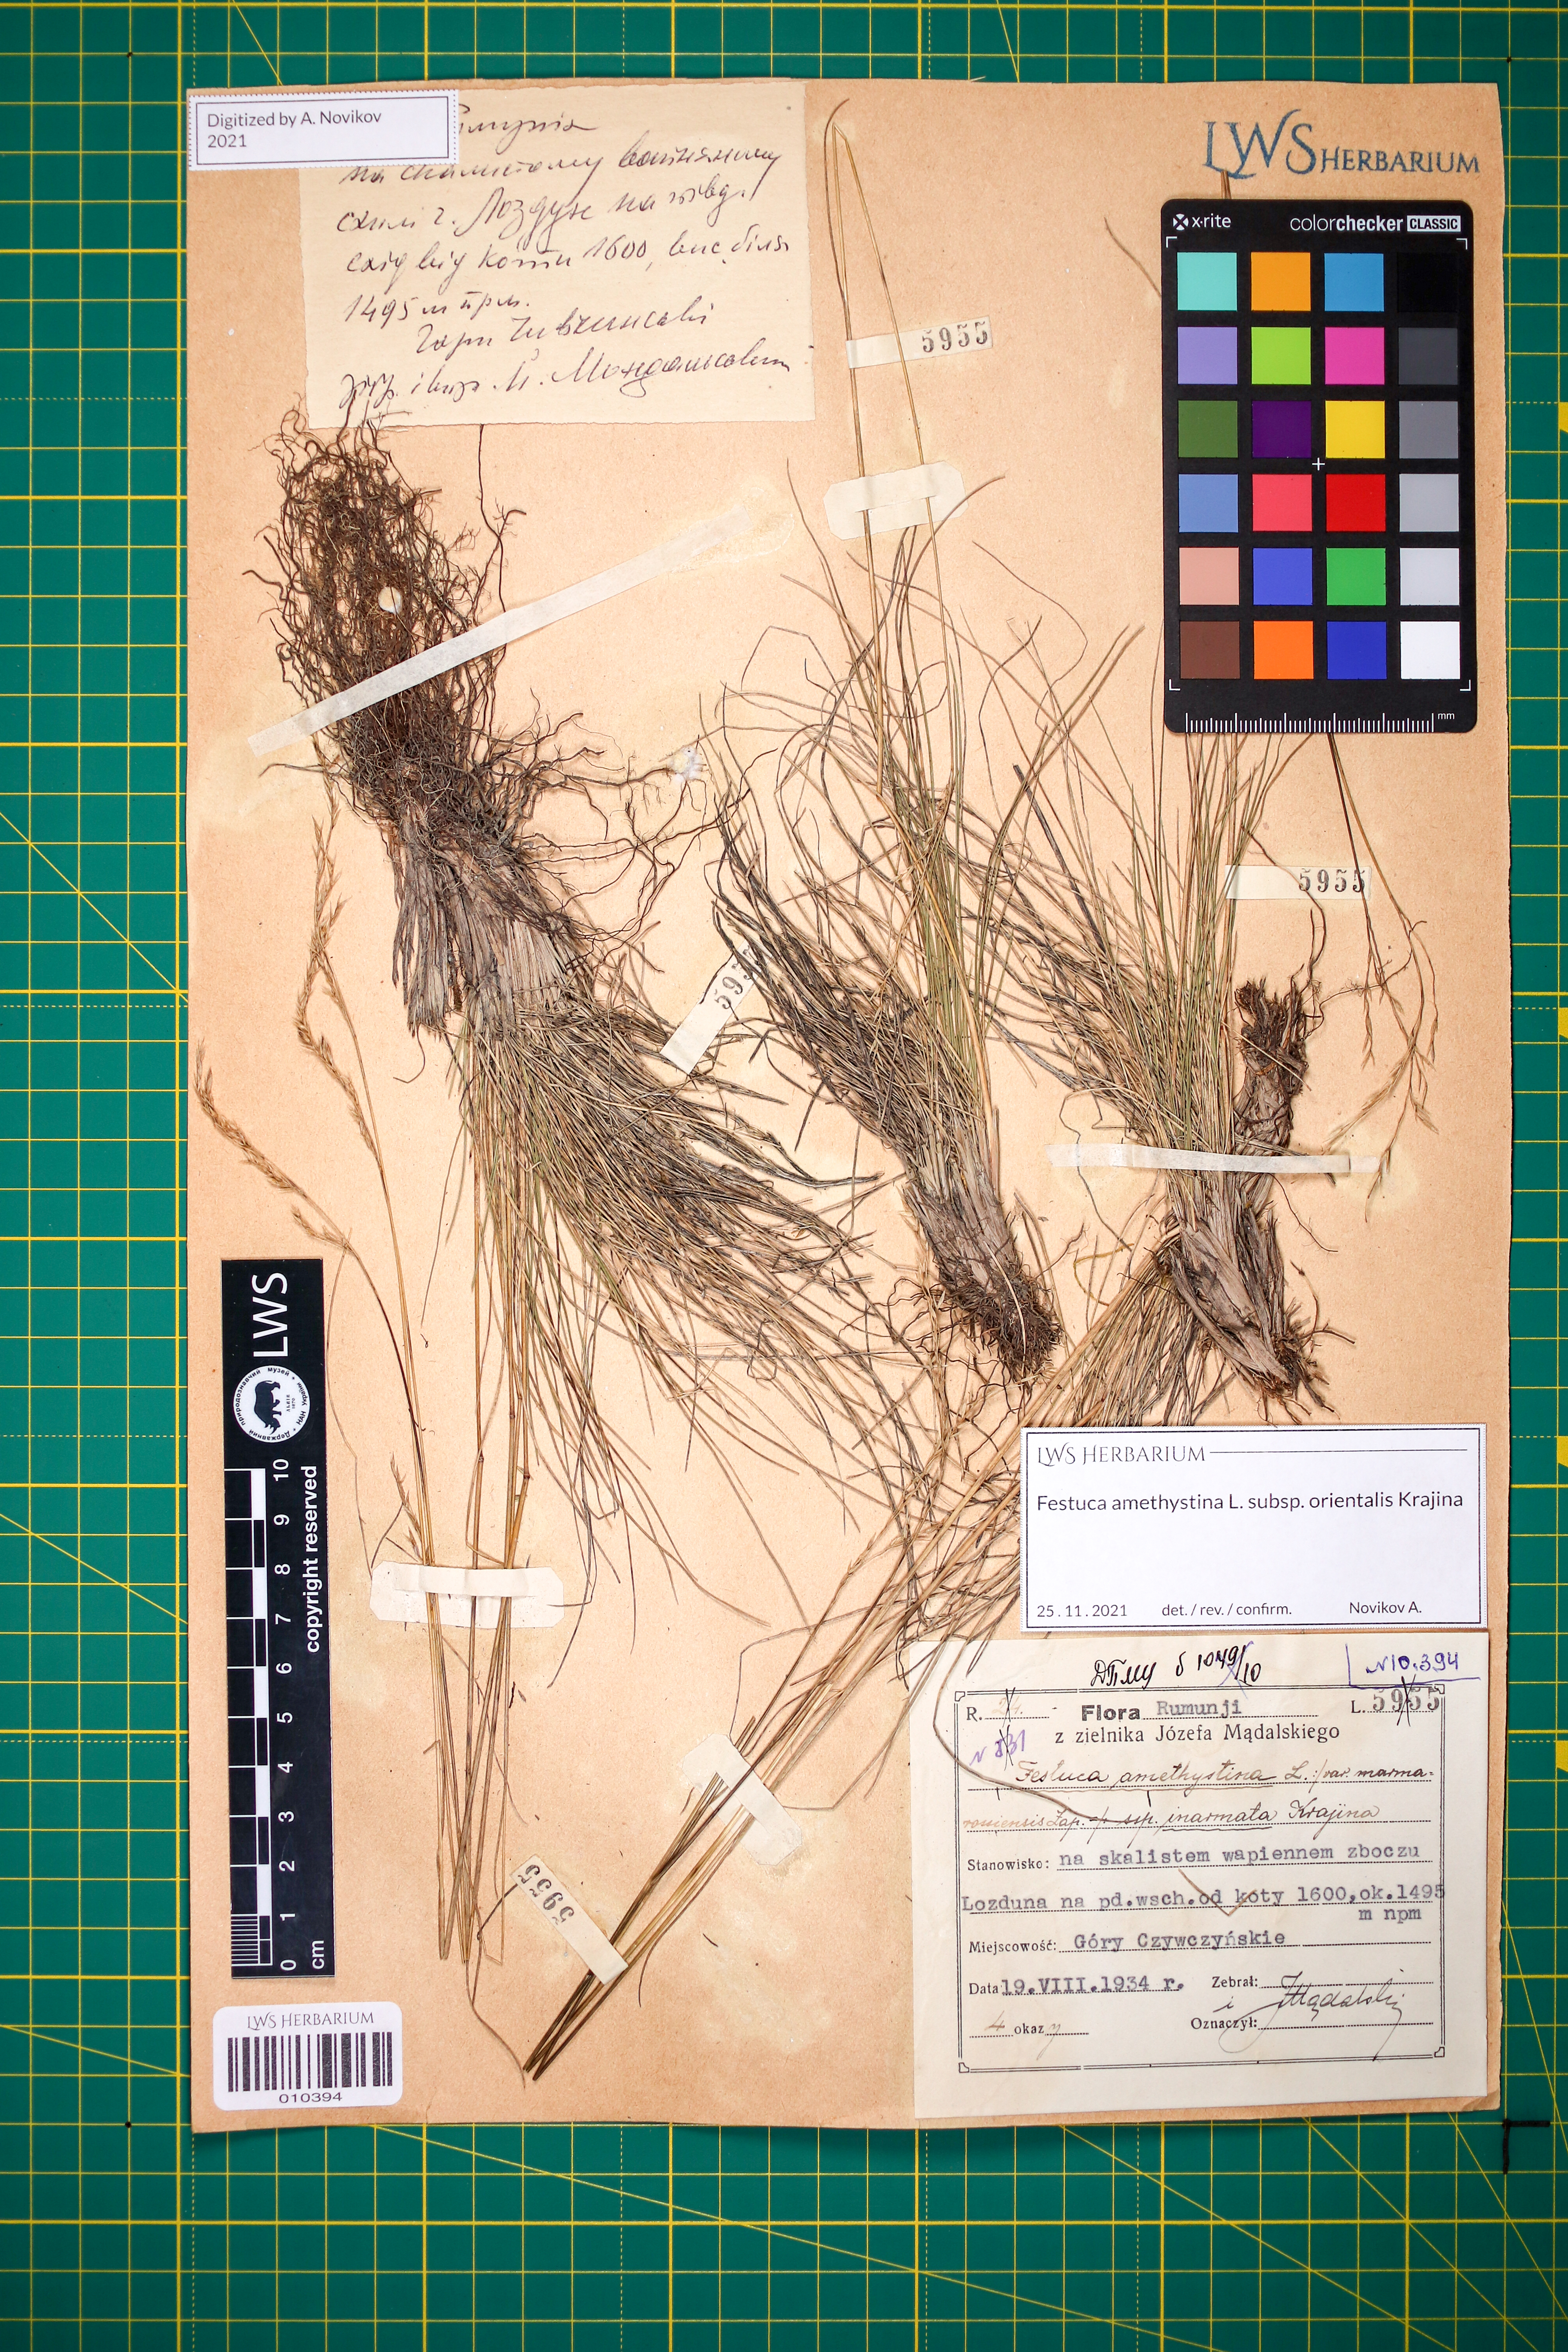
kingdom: Plantae
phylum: Tracheophyta
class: Liliopsida
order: Poales
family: Poaceae
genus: Festuca
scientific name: Festuca amethystina
